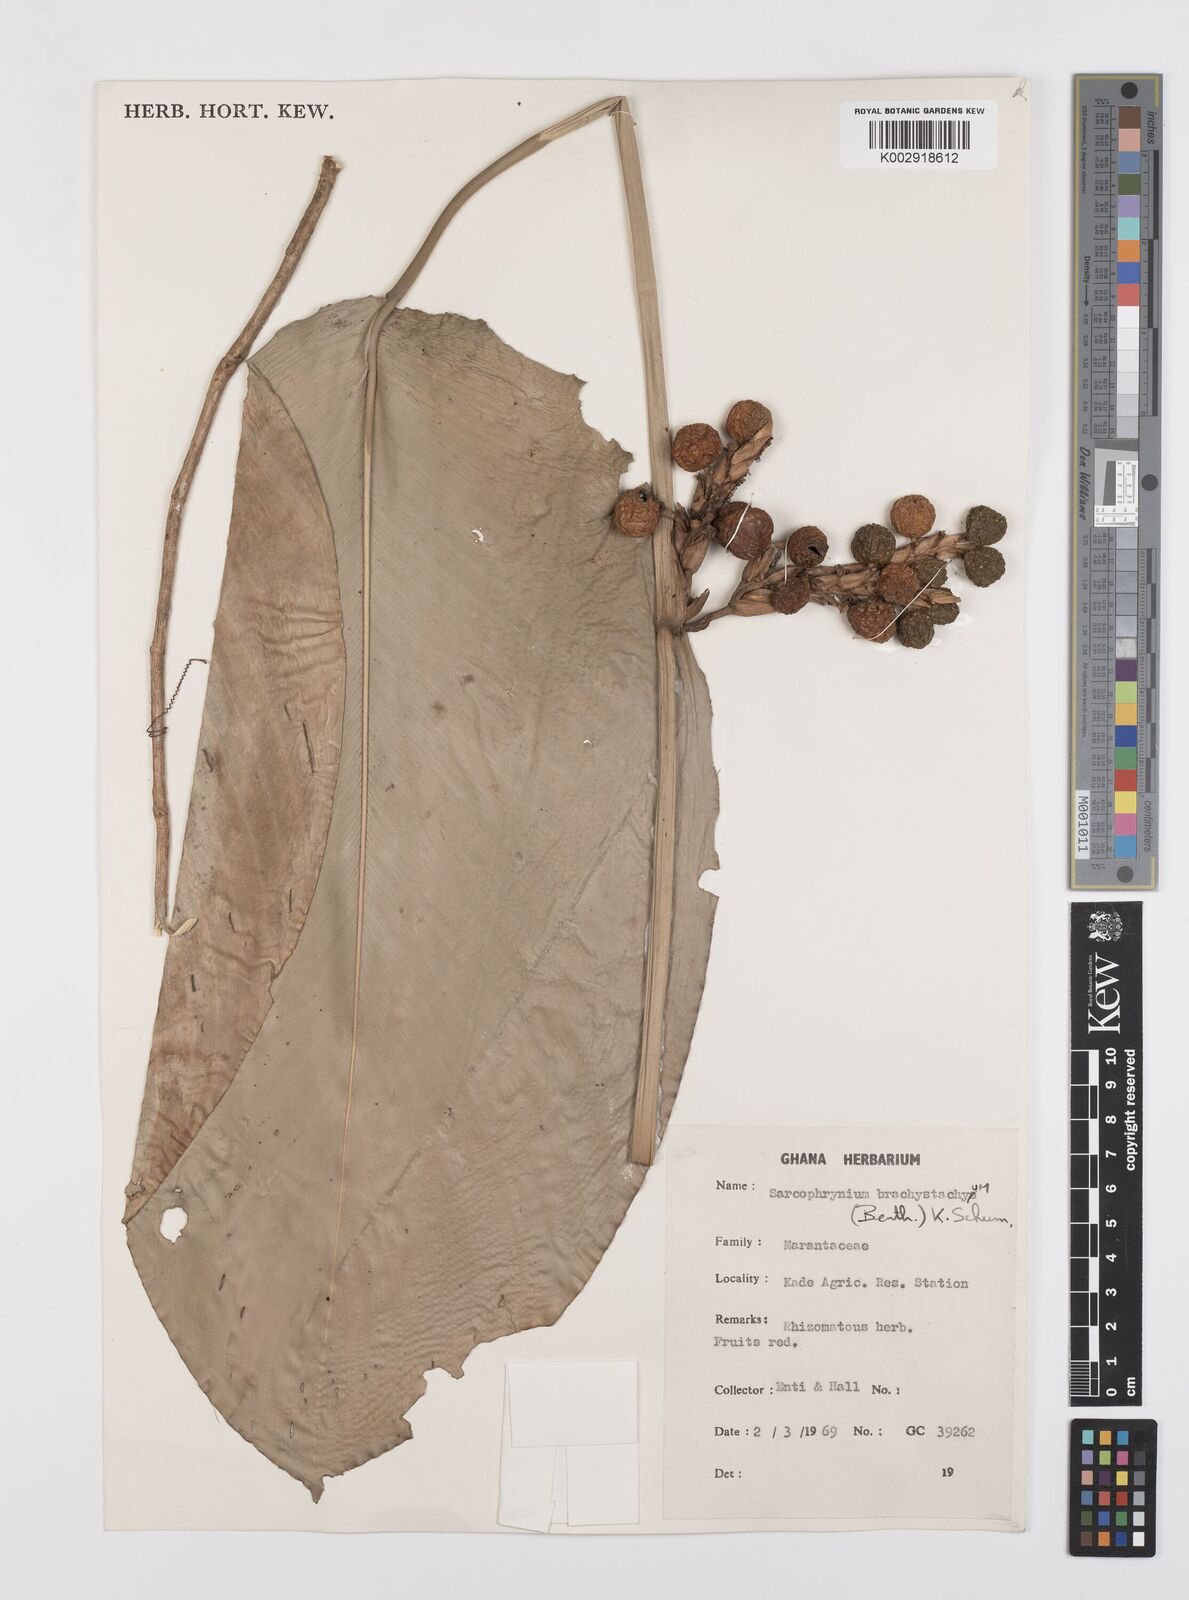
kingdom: Plantae
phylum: Tracheophyta
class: Liliopsida
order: Zingiberales
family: Marantaceae
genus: Sarcophrynium
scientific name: Sarcophrynium brachystachyum
